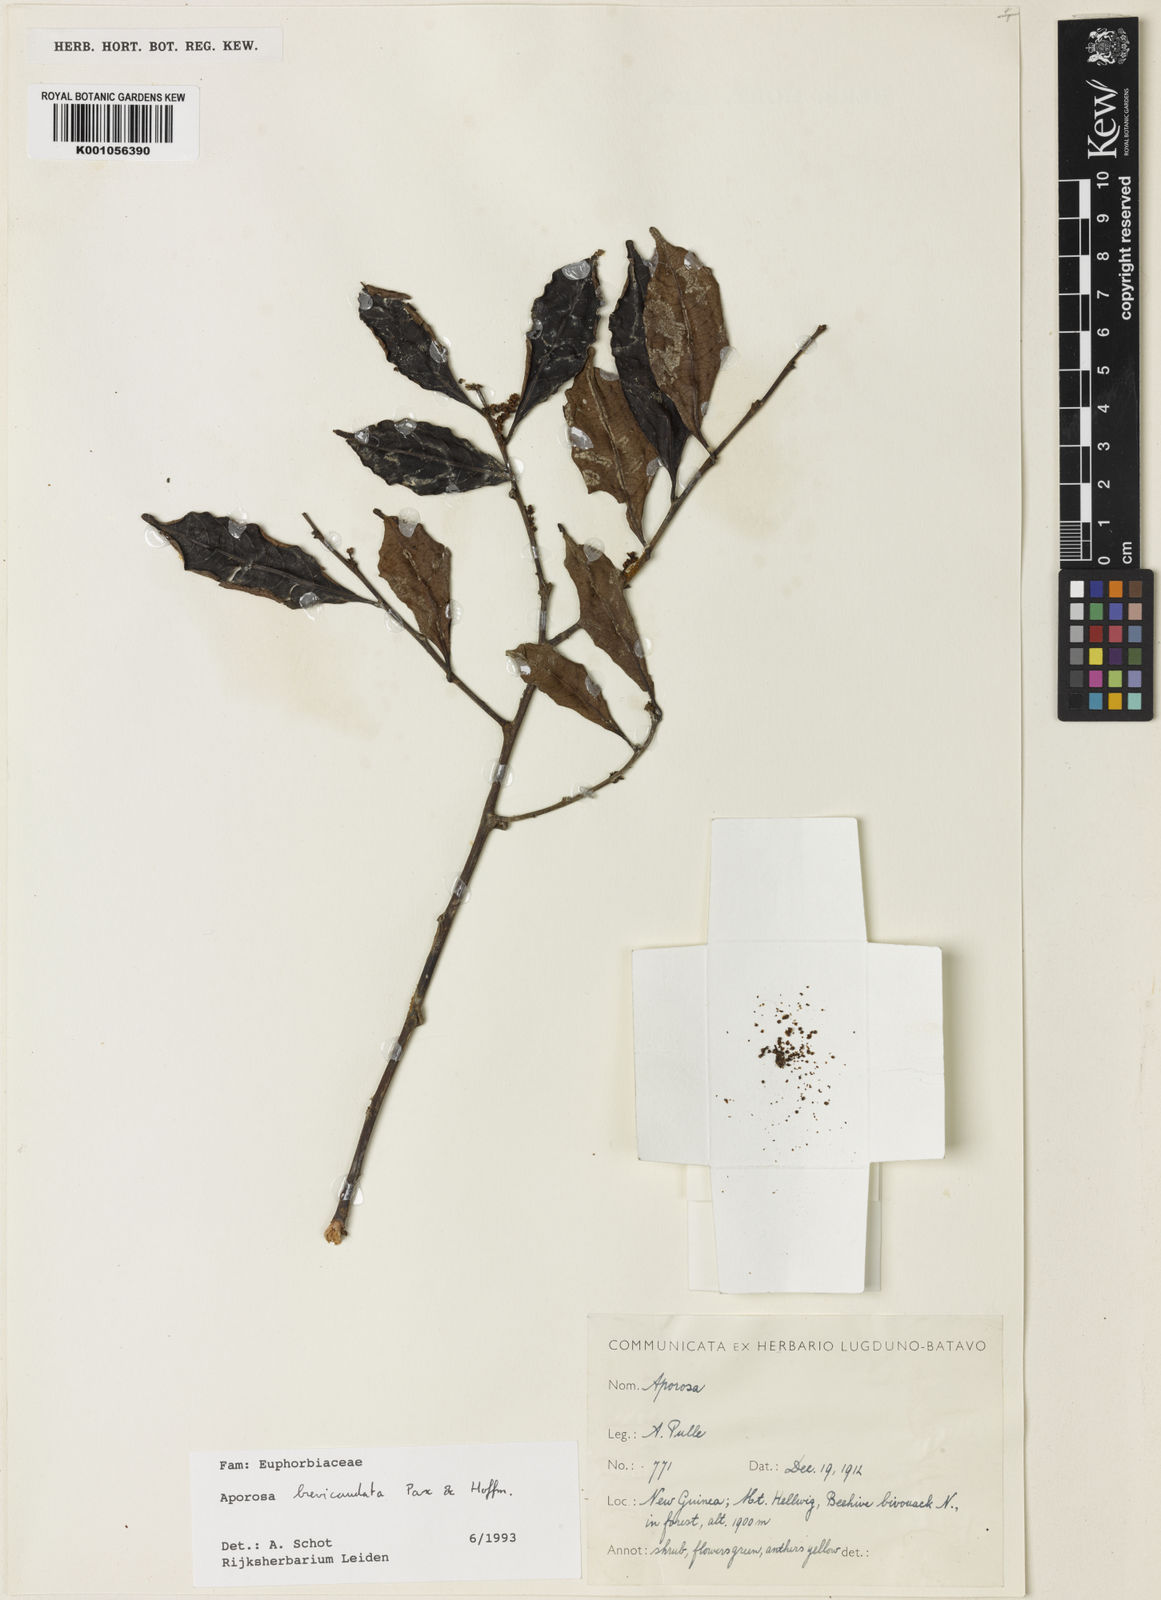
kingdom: Plantae
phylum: Tracheophyta
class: Magnoliopsida
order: Malpighiales
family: Phyllanthaceae
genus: Aporosa
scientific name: Aporosa brevicaudata
